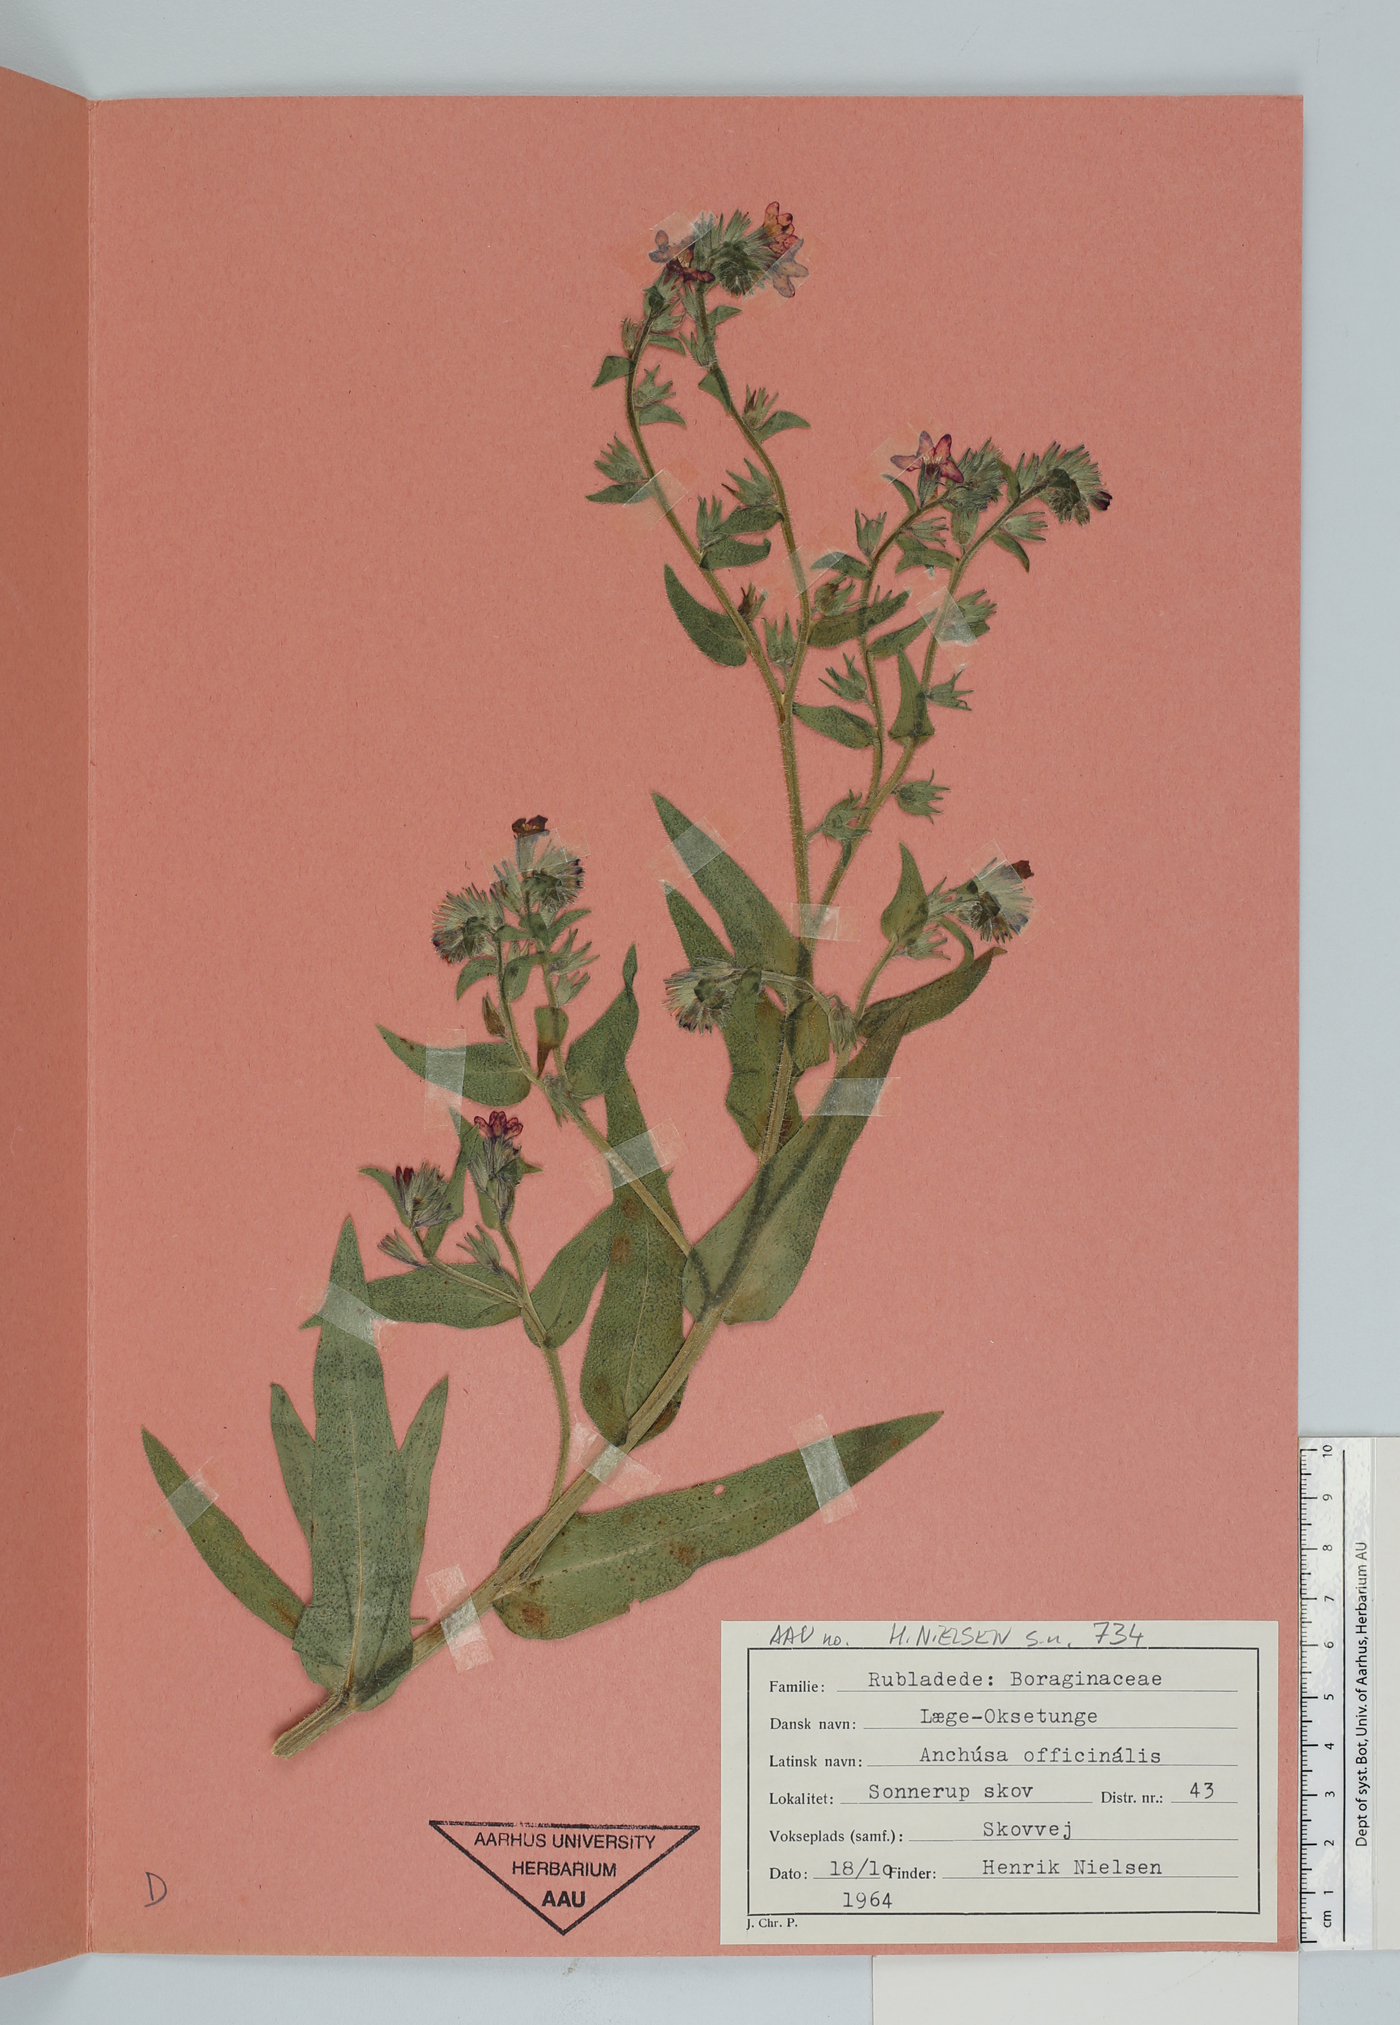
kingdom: Plantae
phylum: Tracheophyta
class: Magnoliopsida
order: Boraginales
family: Boraginaceae
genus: Anchusa
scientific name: Anchusa officinalis
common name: Alkanet
